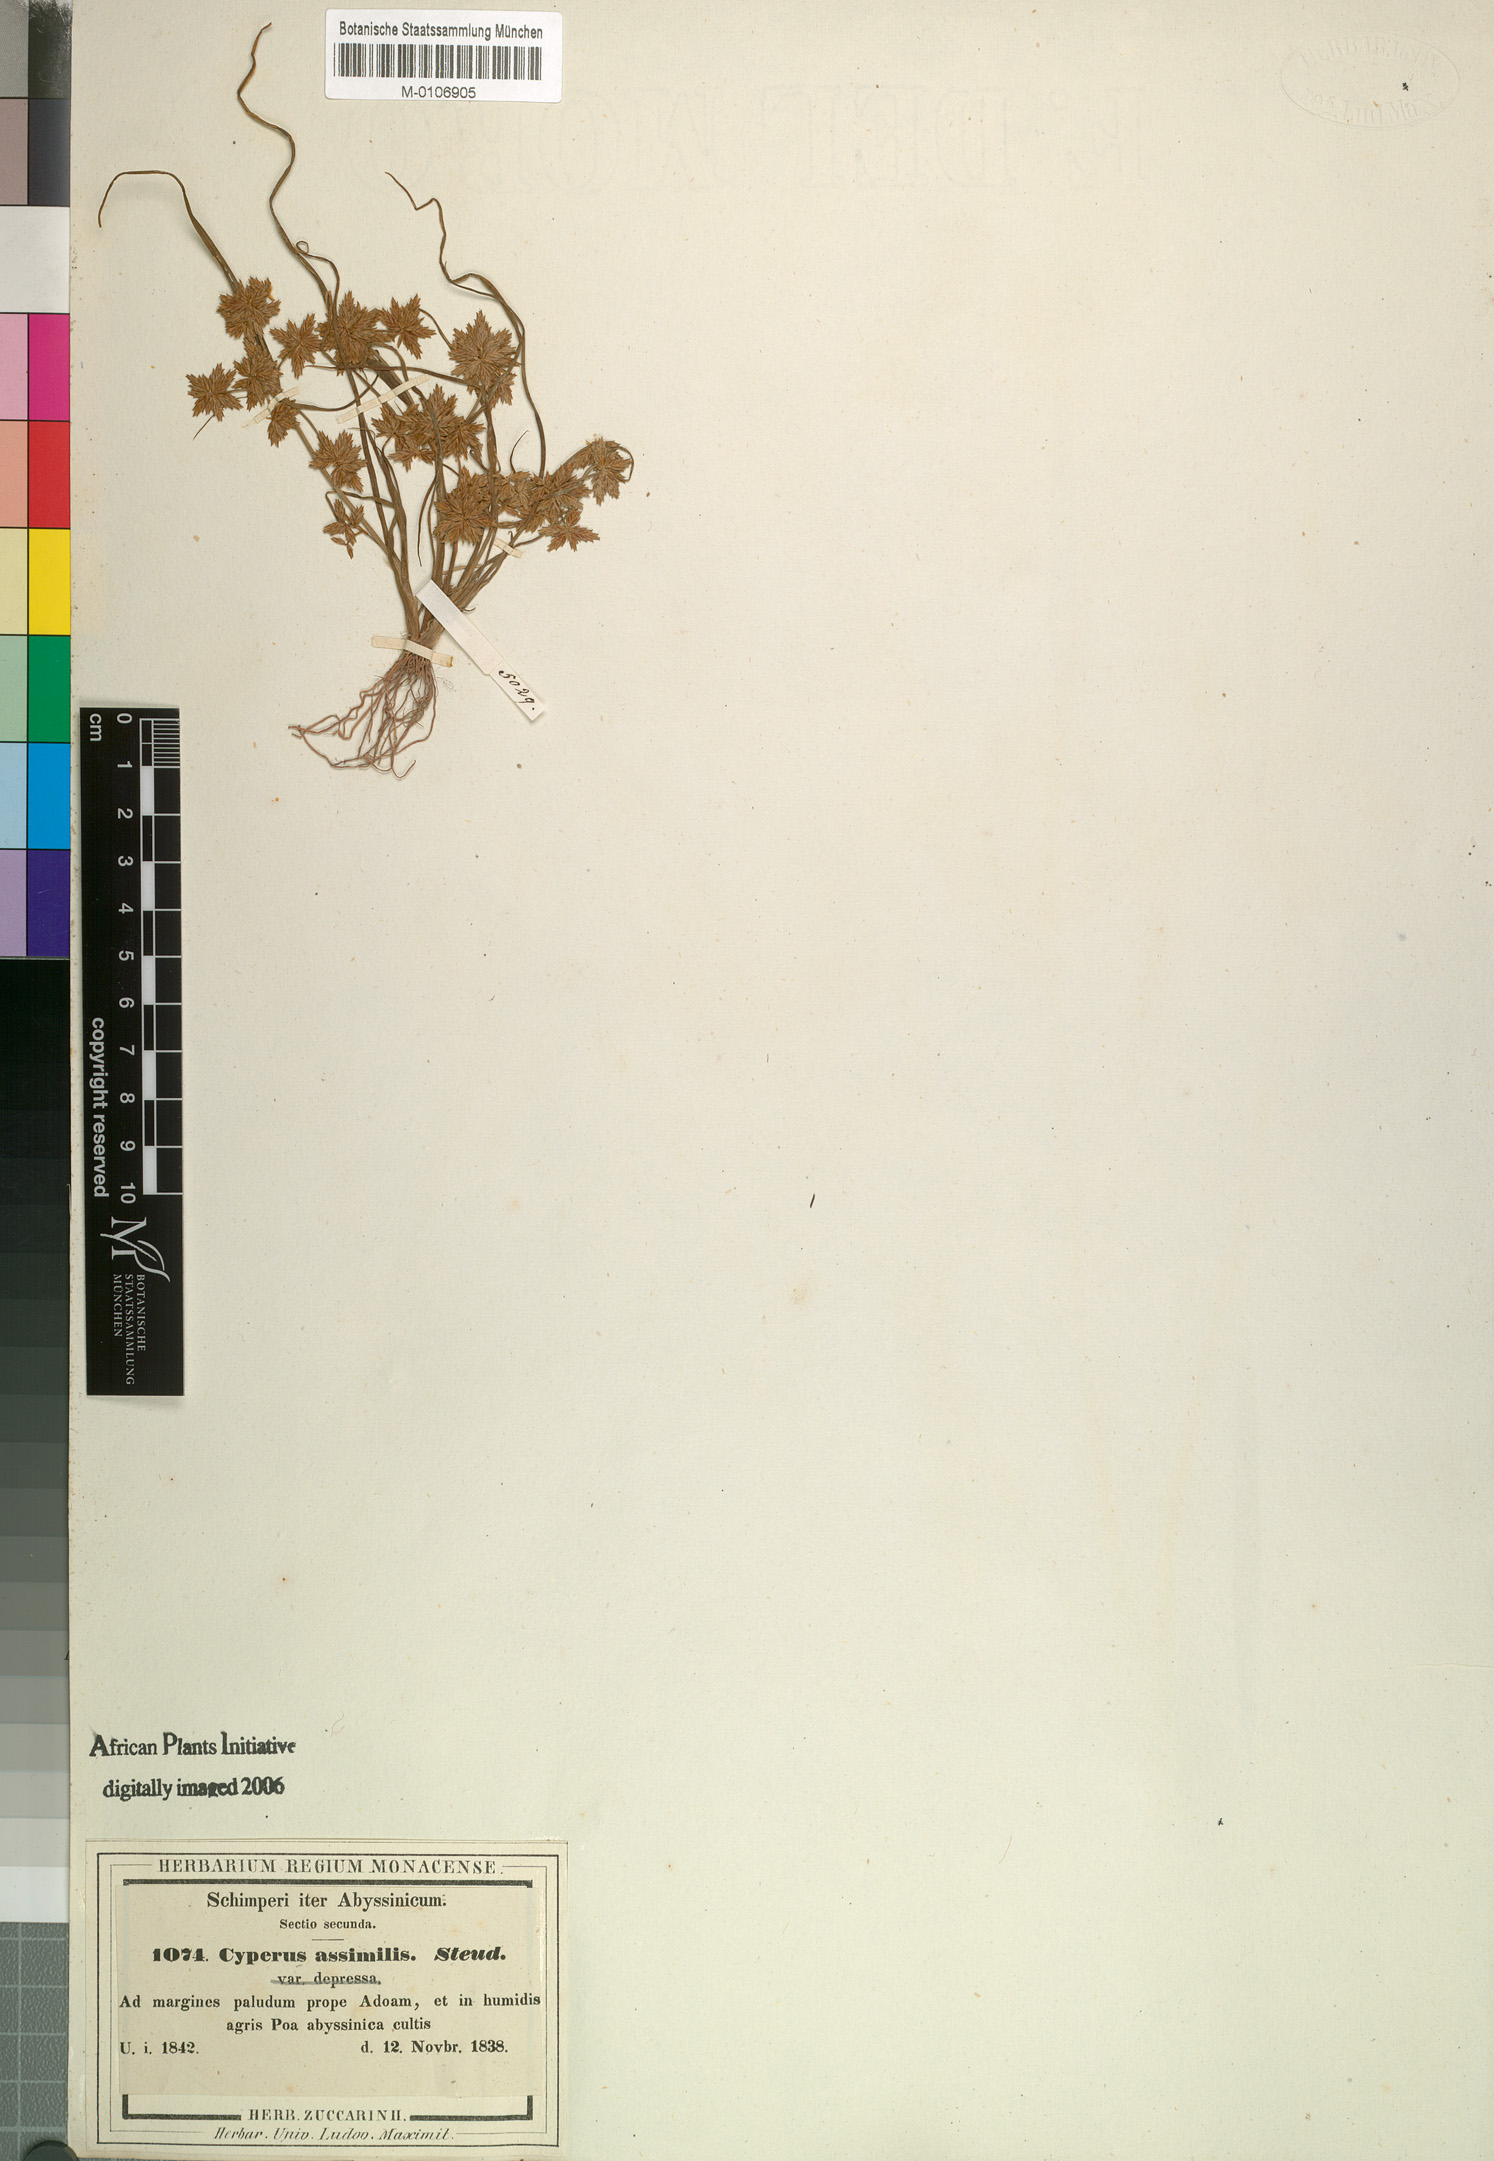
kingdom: Plantae
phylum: Tracheophyta
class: Liliopsida
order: Poales
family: Cyperaceae
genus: Cyperus
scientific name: Cyperus assimilis
